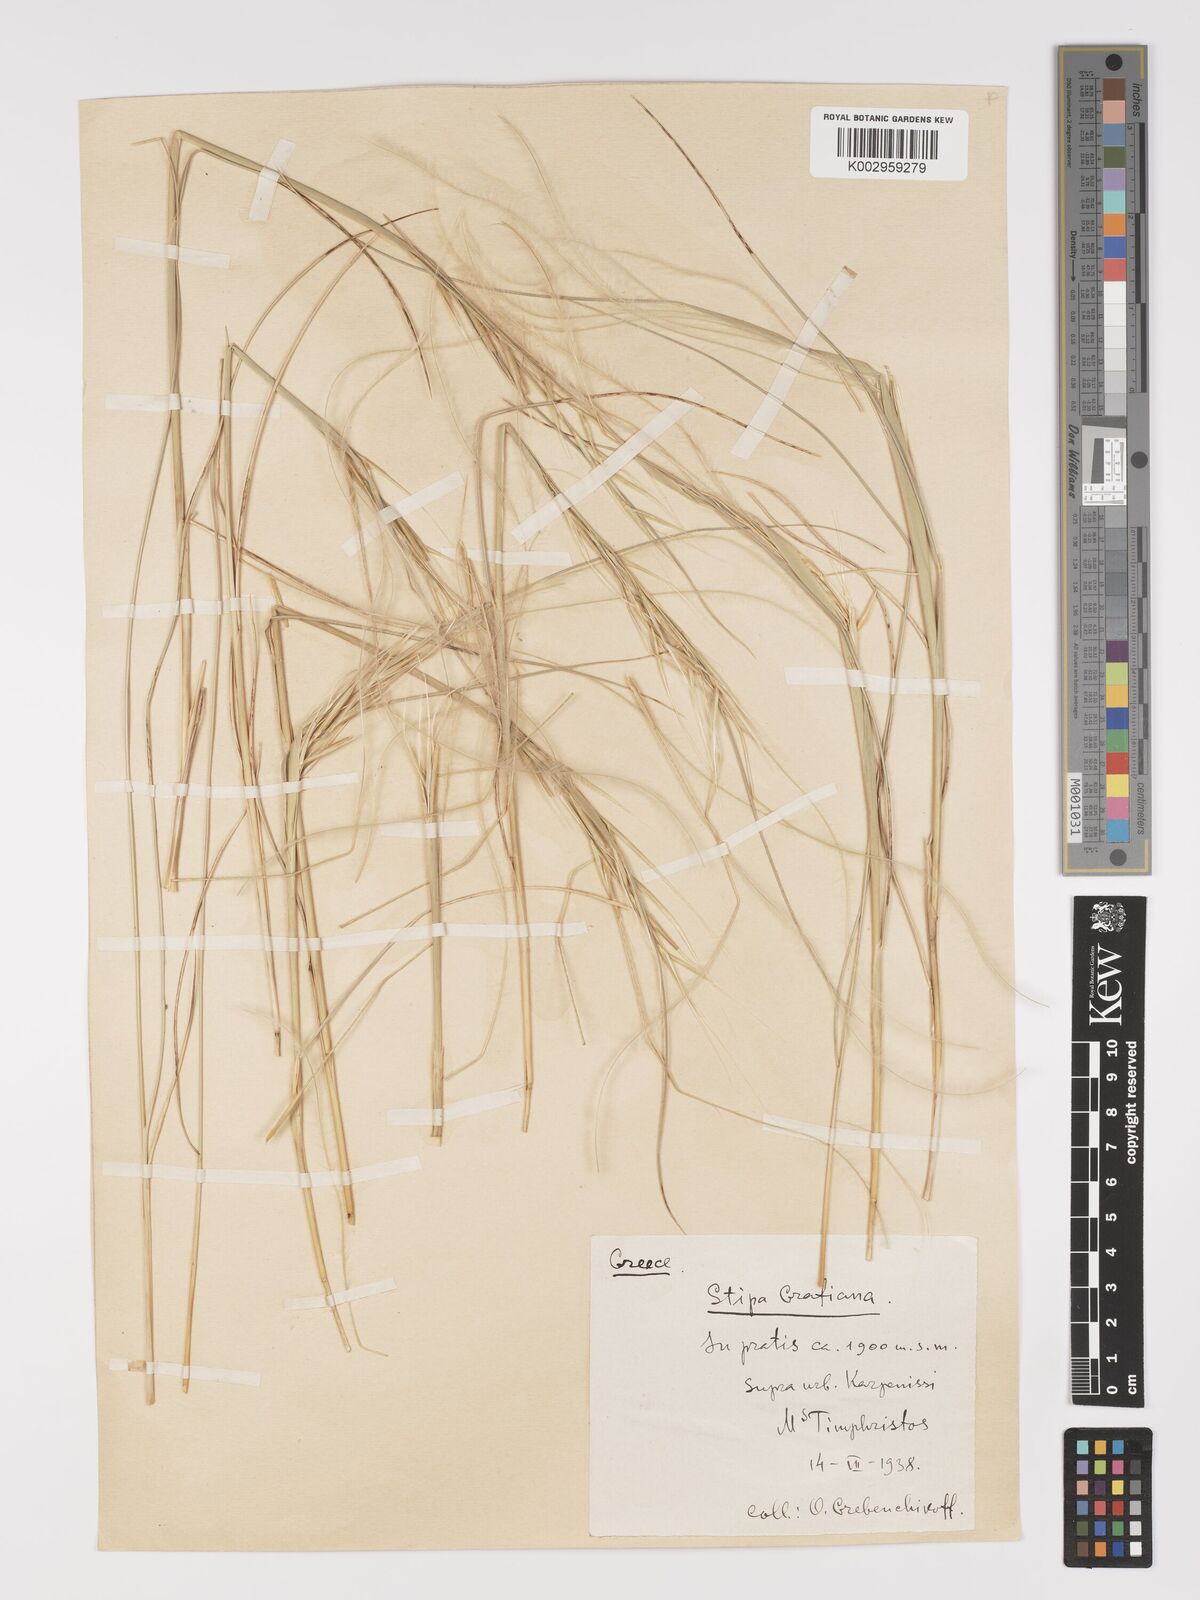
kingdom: Plantae
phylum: Tracheophyta
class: Liliopsida
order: Poales
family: Poaceae
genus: Stipa
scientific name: Stipa pulcherrima
